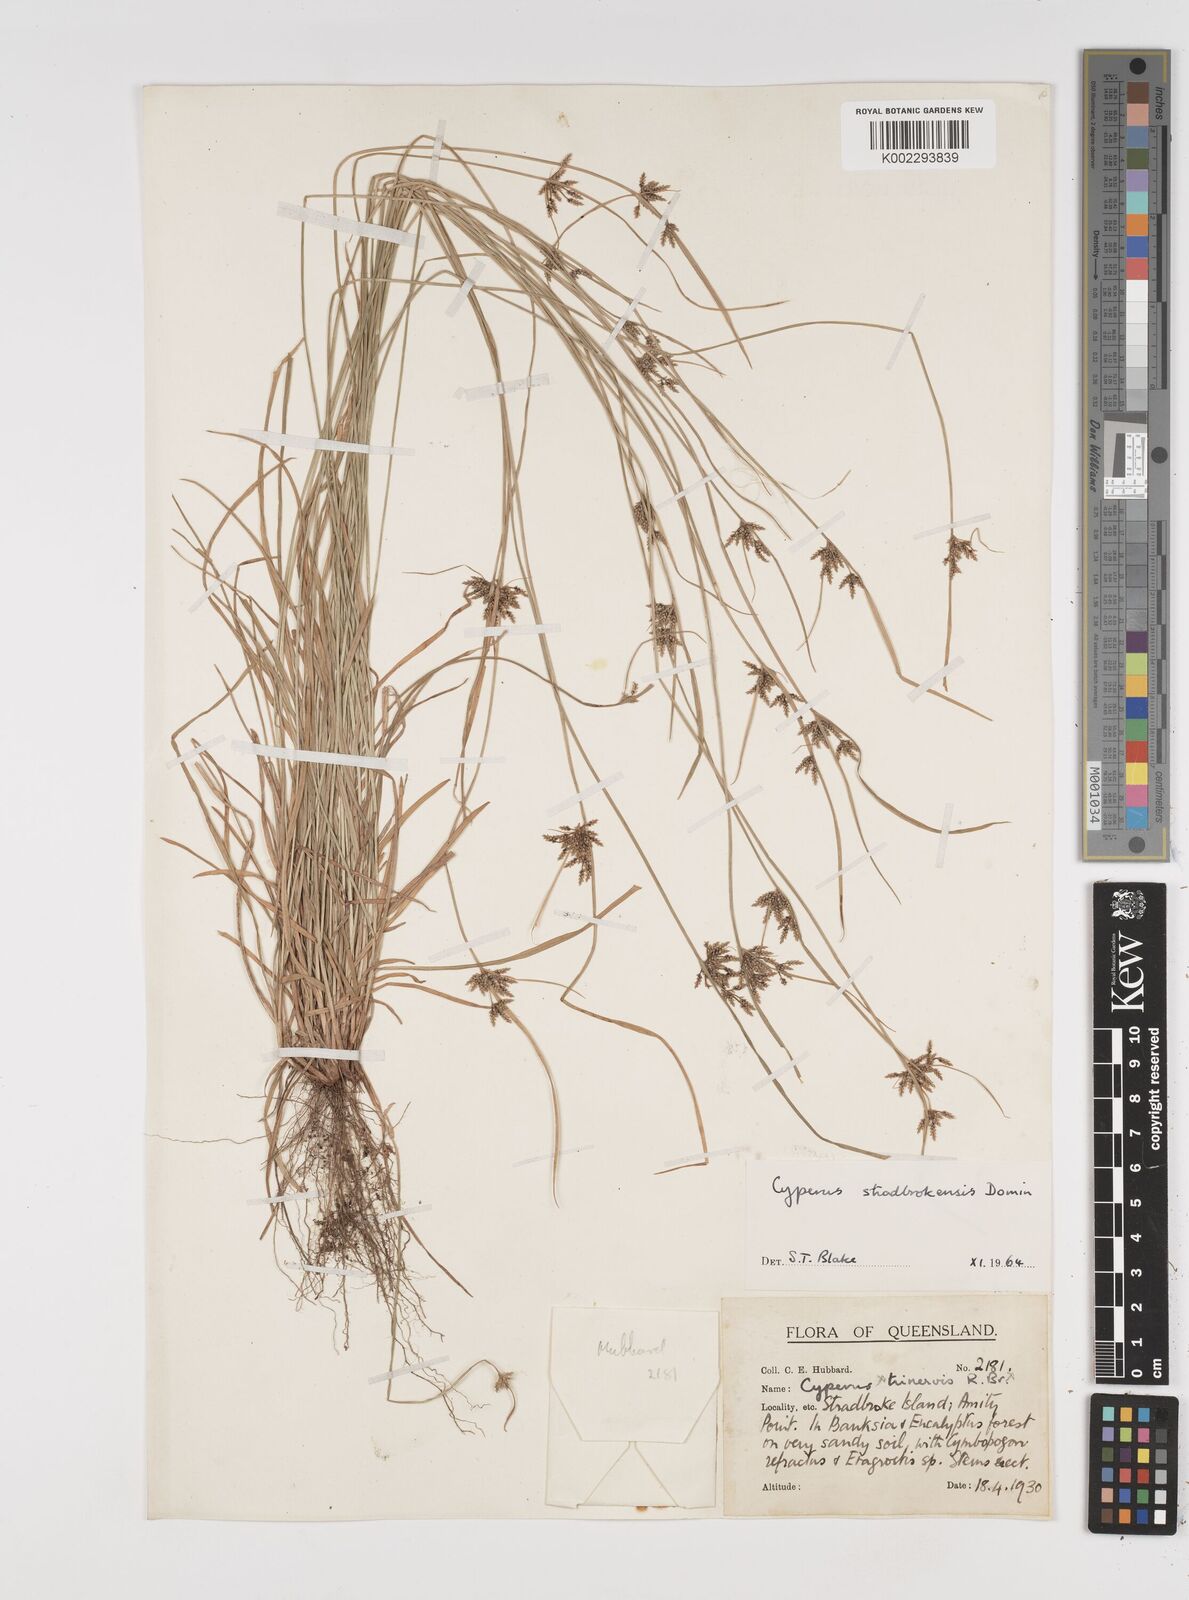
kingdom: Plantae
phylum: Tracheophyta
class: Liliopsida
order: Poales
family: Cyperaceae
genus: Cyperus
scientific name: Cyperus stradbrokensis
